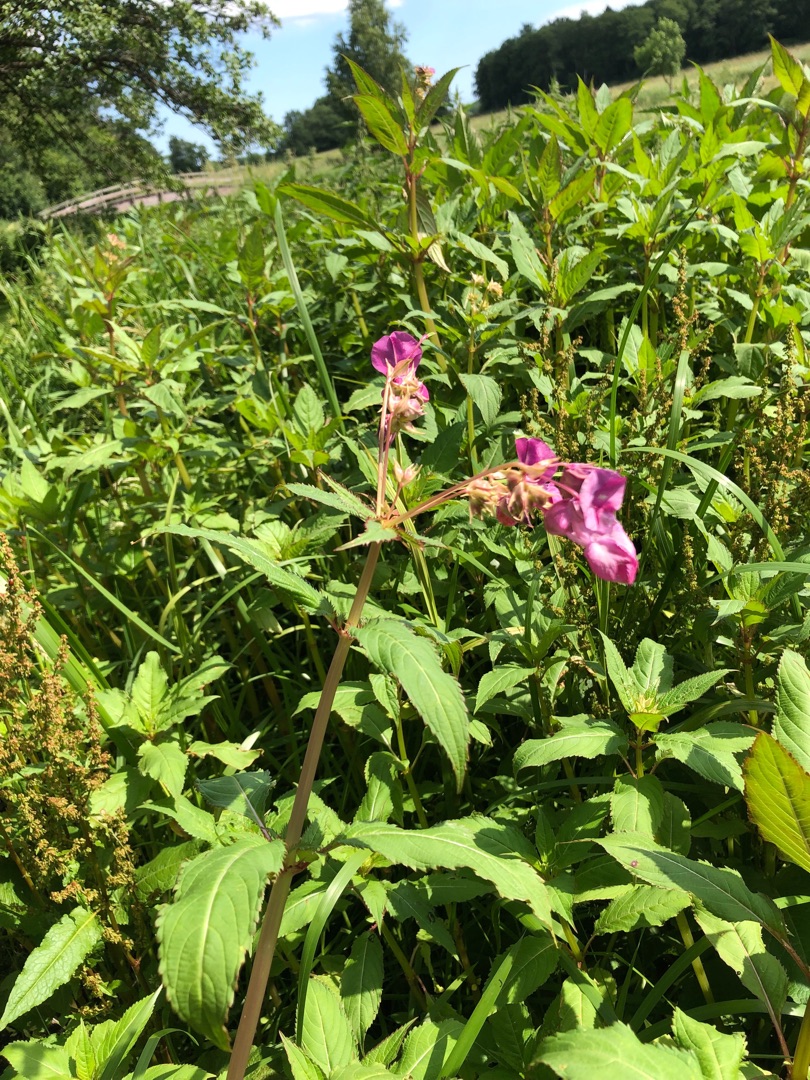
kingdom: Plantae
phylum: Tracheophyta
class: Magnoliopsida
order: Ericales
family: Balsaminaceae
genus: Impatiens
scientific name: Impatiens glandulifera
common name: Kæmpe-balsamin
